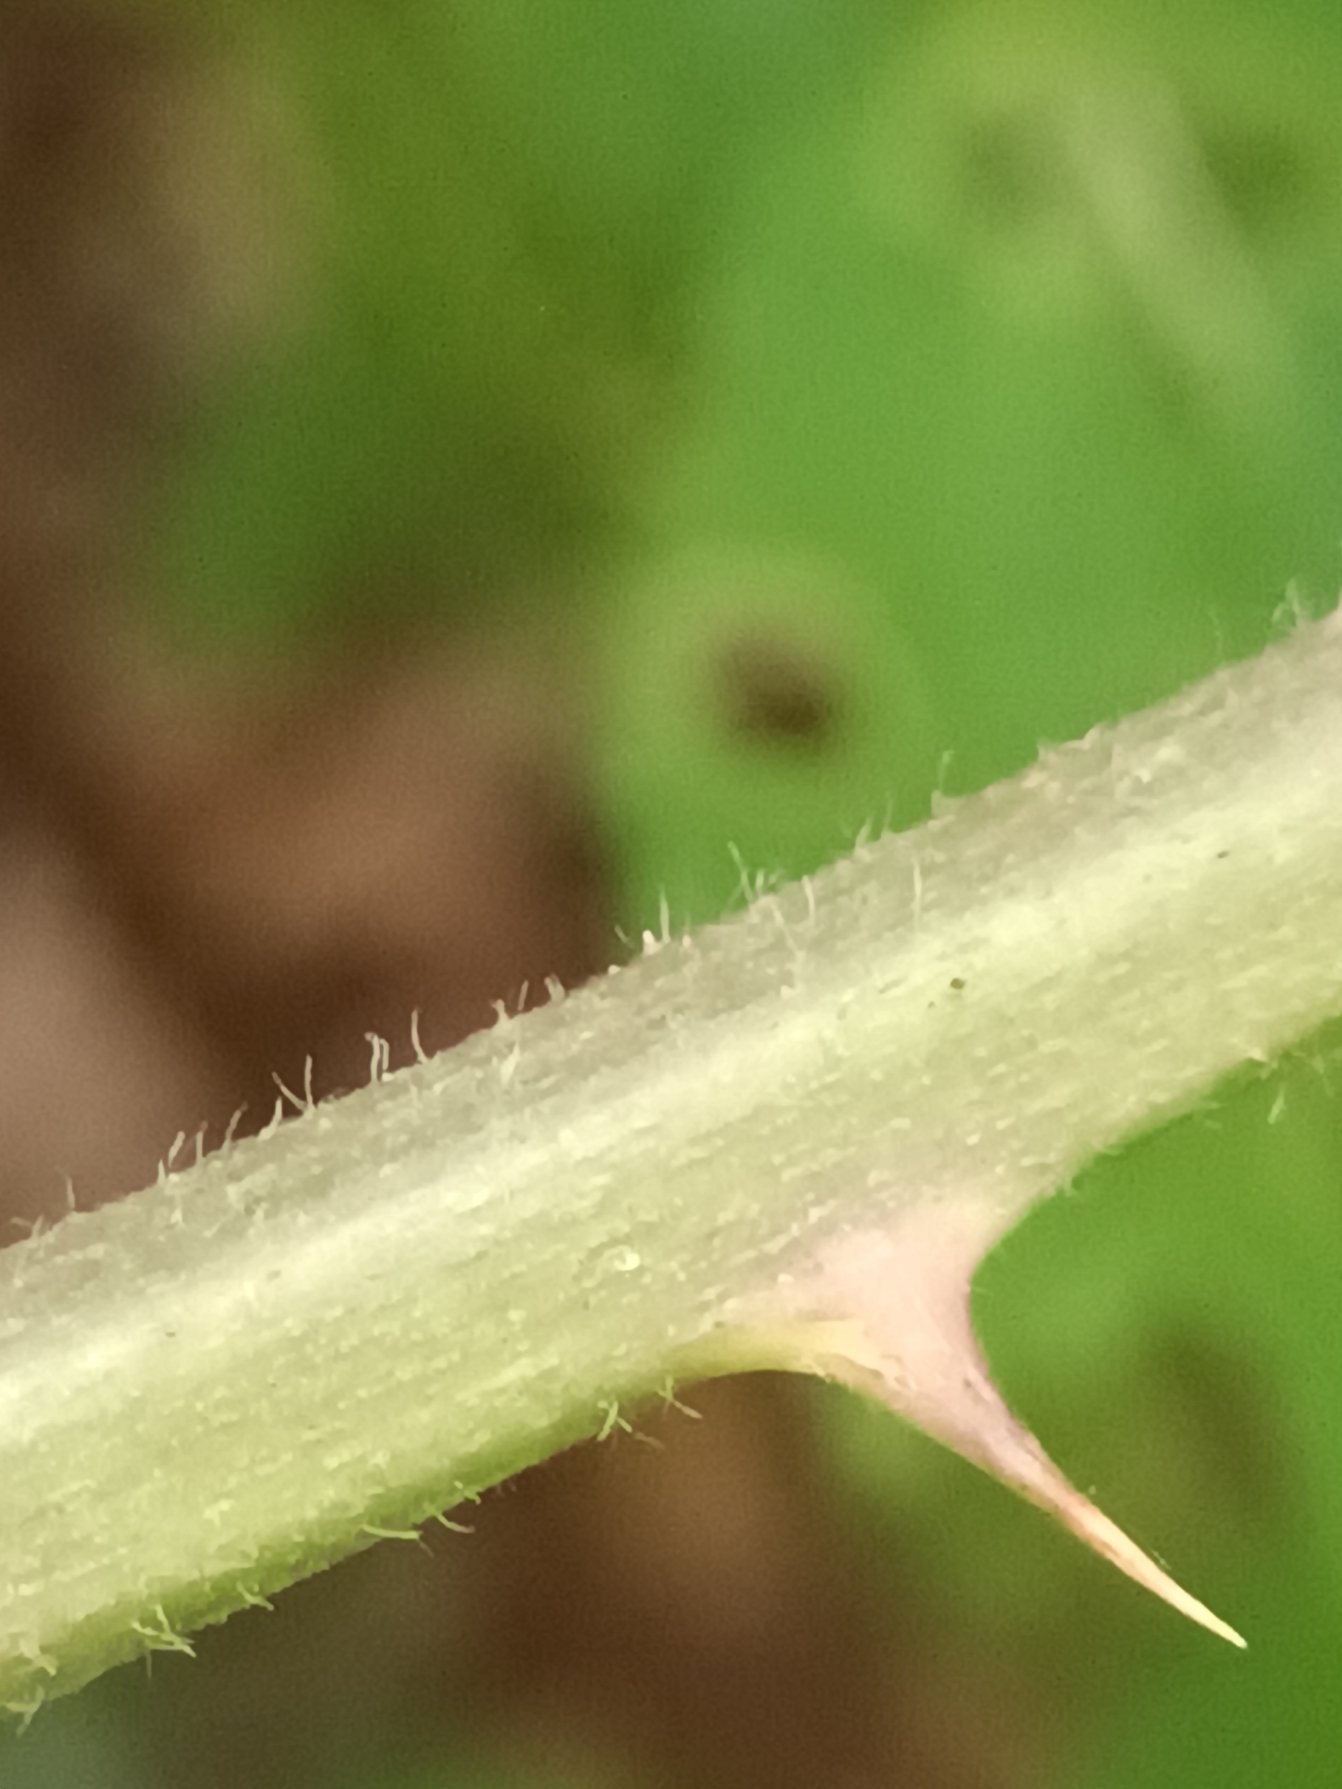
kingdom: Plantae
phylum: Tracheophyta
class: Magnoliopsida
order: Rosales
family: Rosaceae
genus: Rubus
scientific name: Rubus radula
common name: Rasperu brombær
